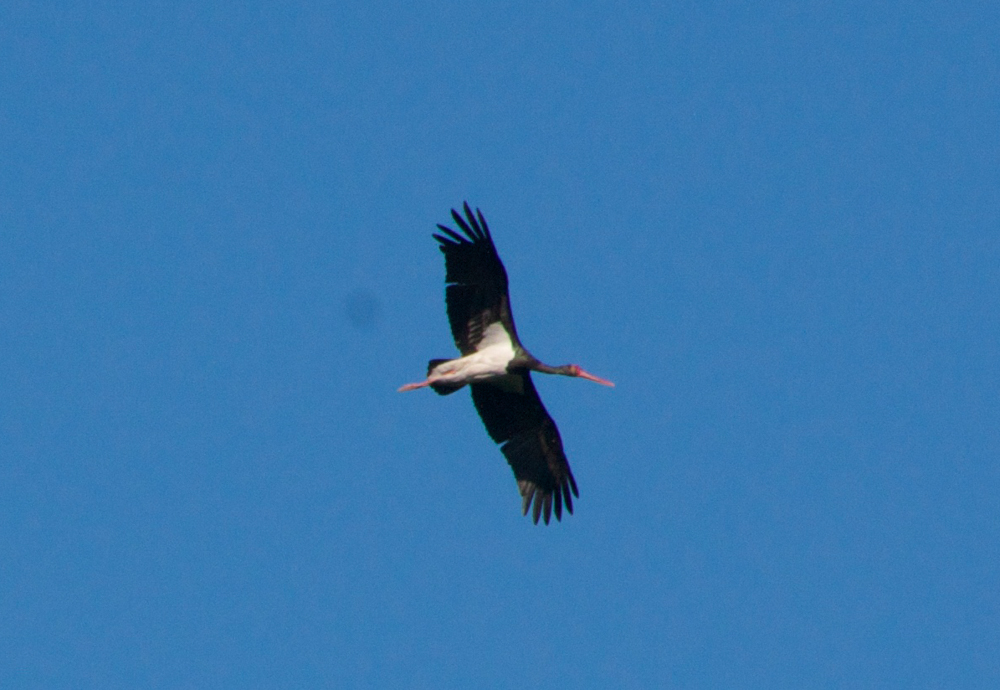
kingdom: Animalia
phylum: Chordata
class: Aves
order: Ciconiiformes
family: Ciconiidae
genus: Ciconia
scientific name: Ciconia nigra
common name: Black stork
